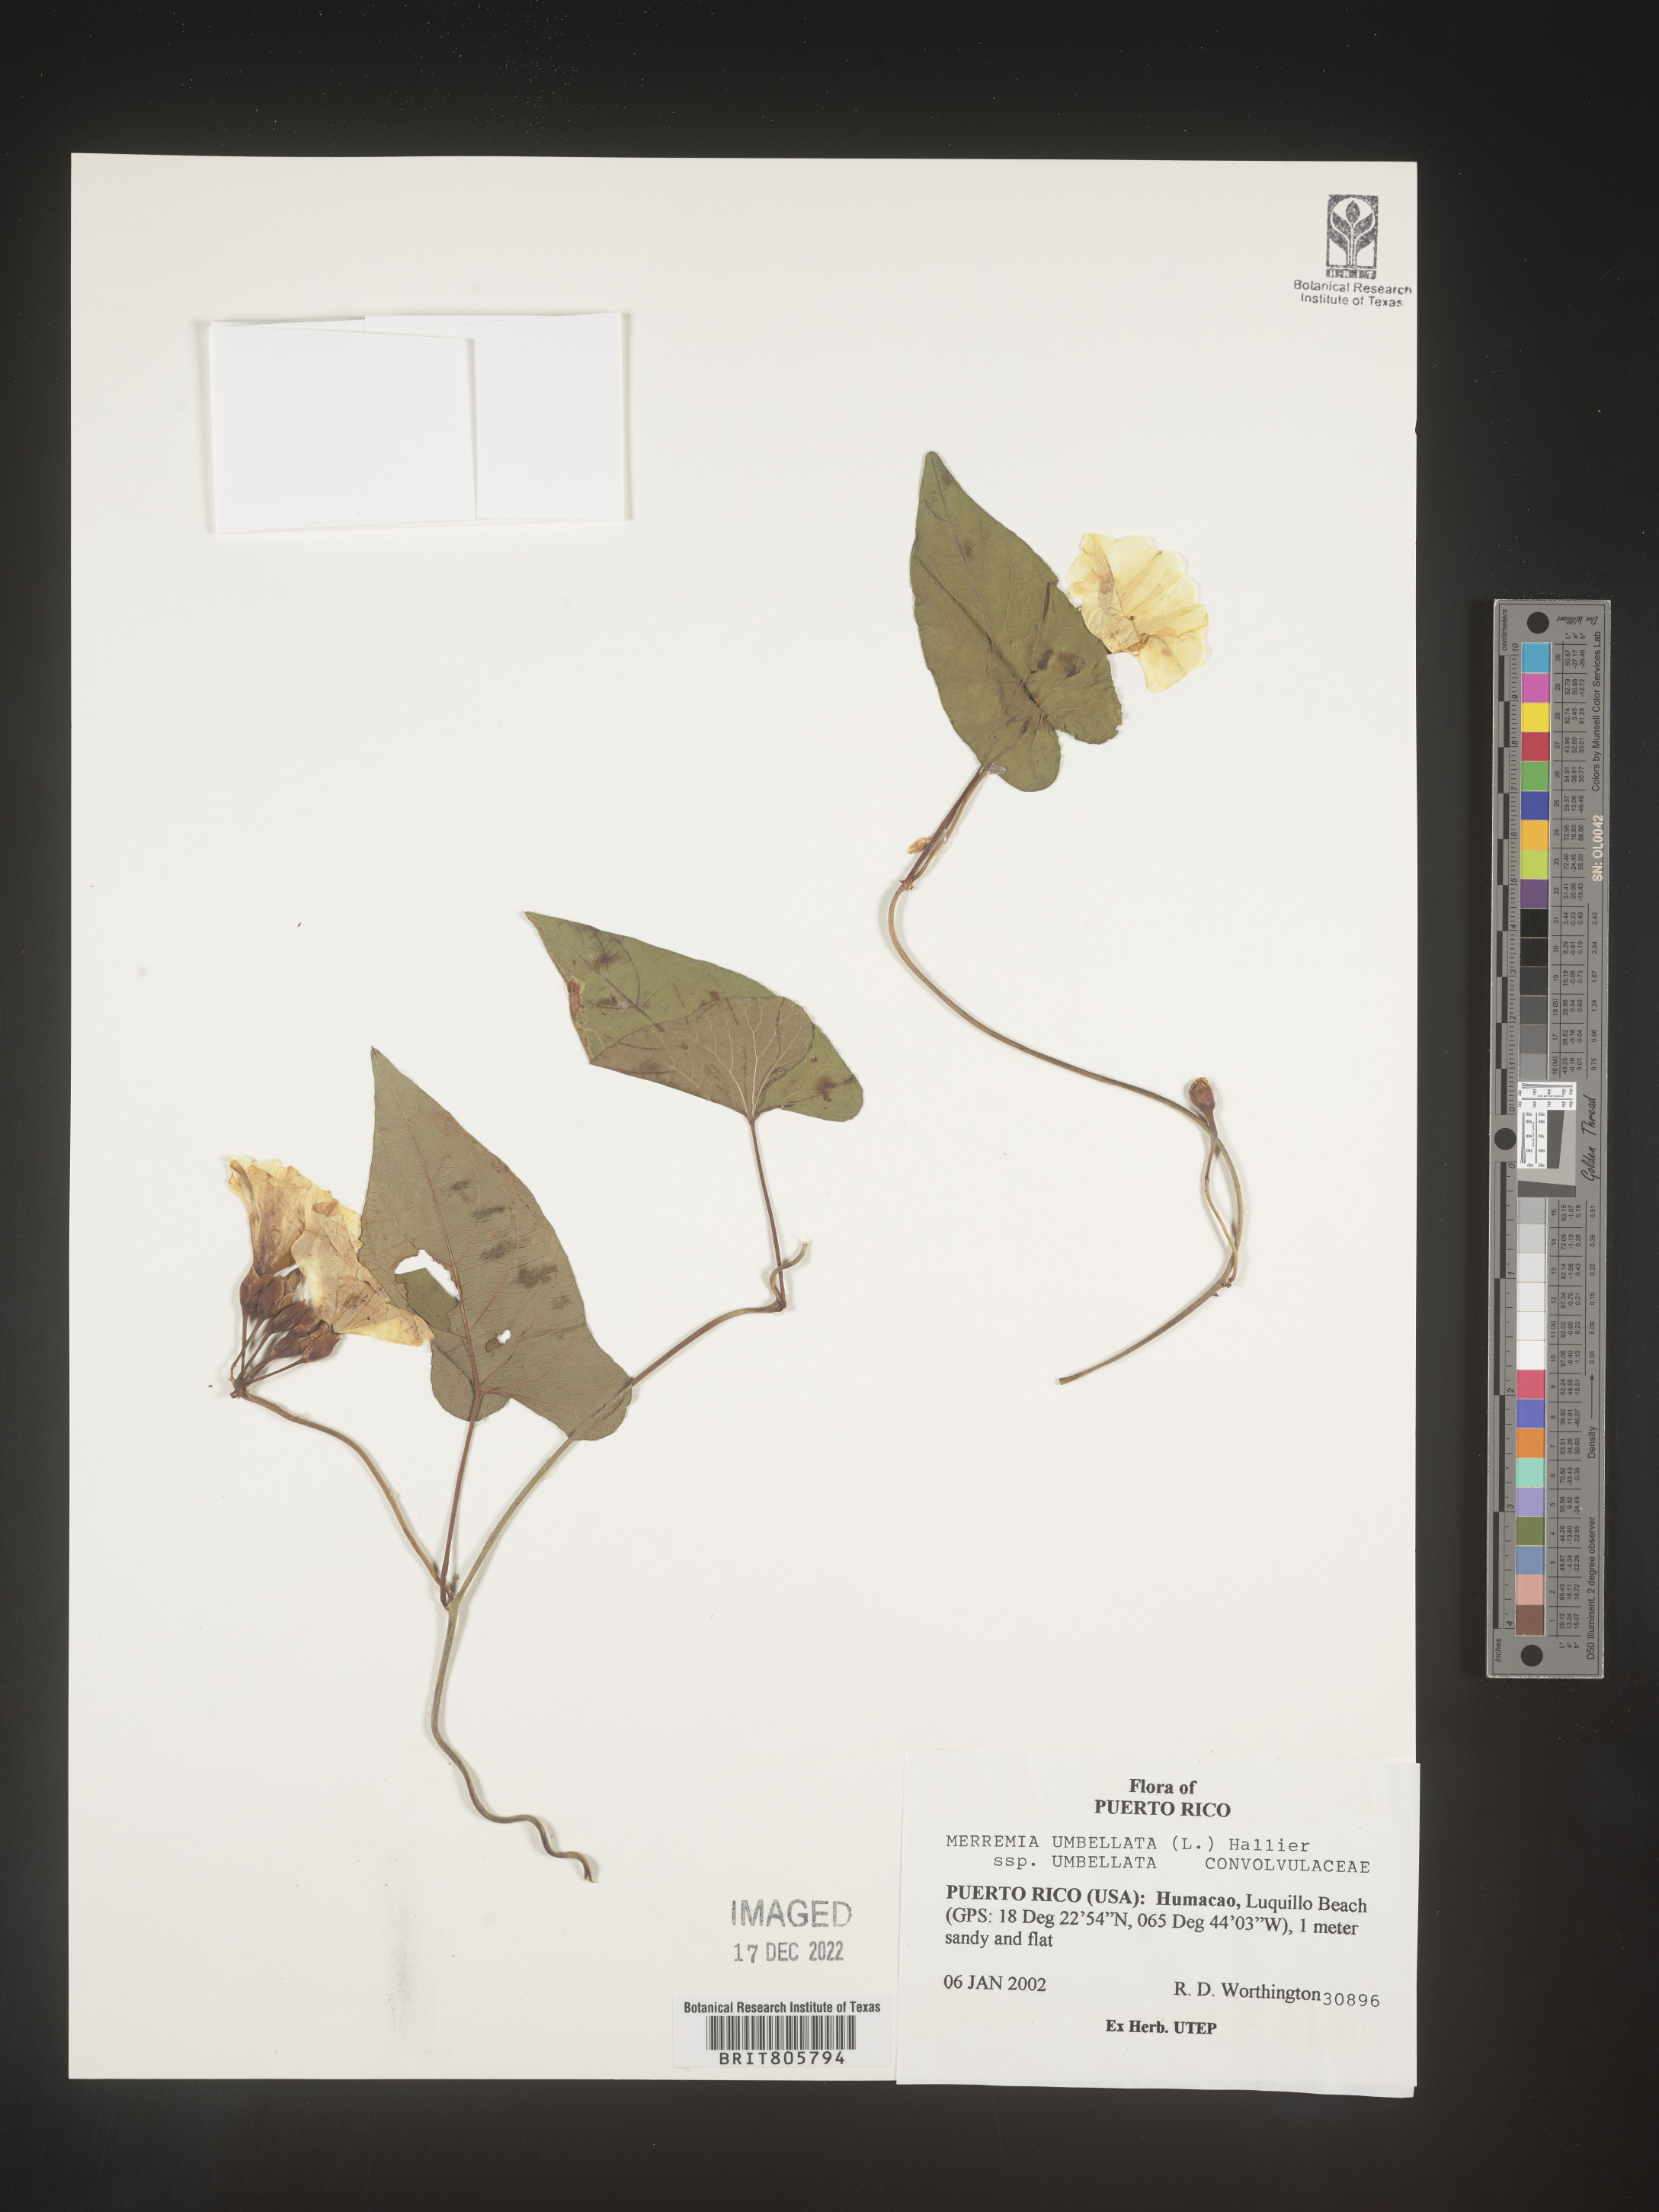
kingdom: Plantae
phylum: Tracheophyta
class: Magnoliopsida
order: Solanales
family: Convolvulaceae
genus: Merremia
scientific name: Merremia
